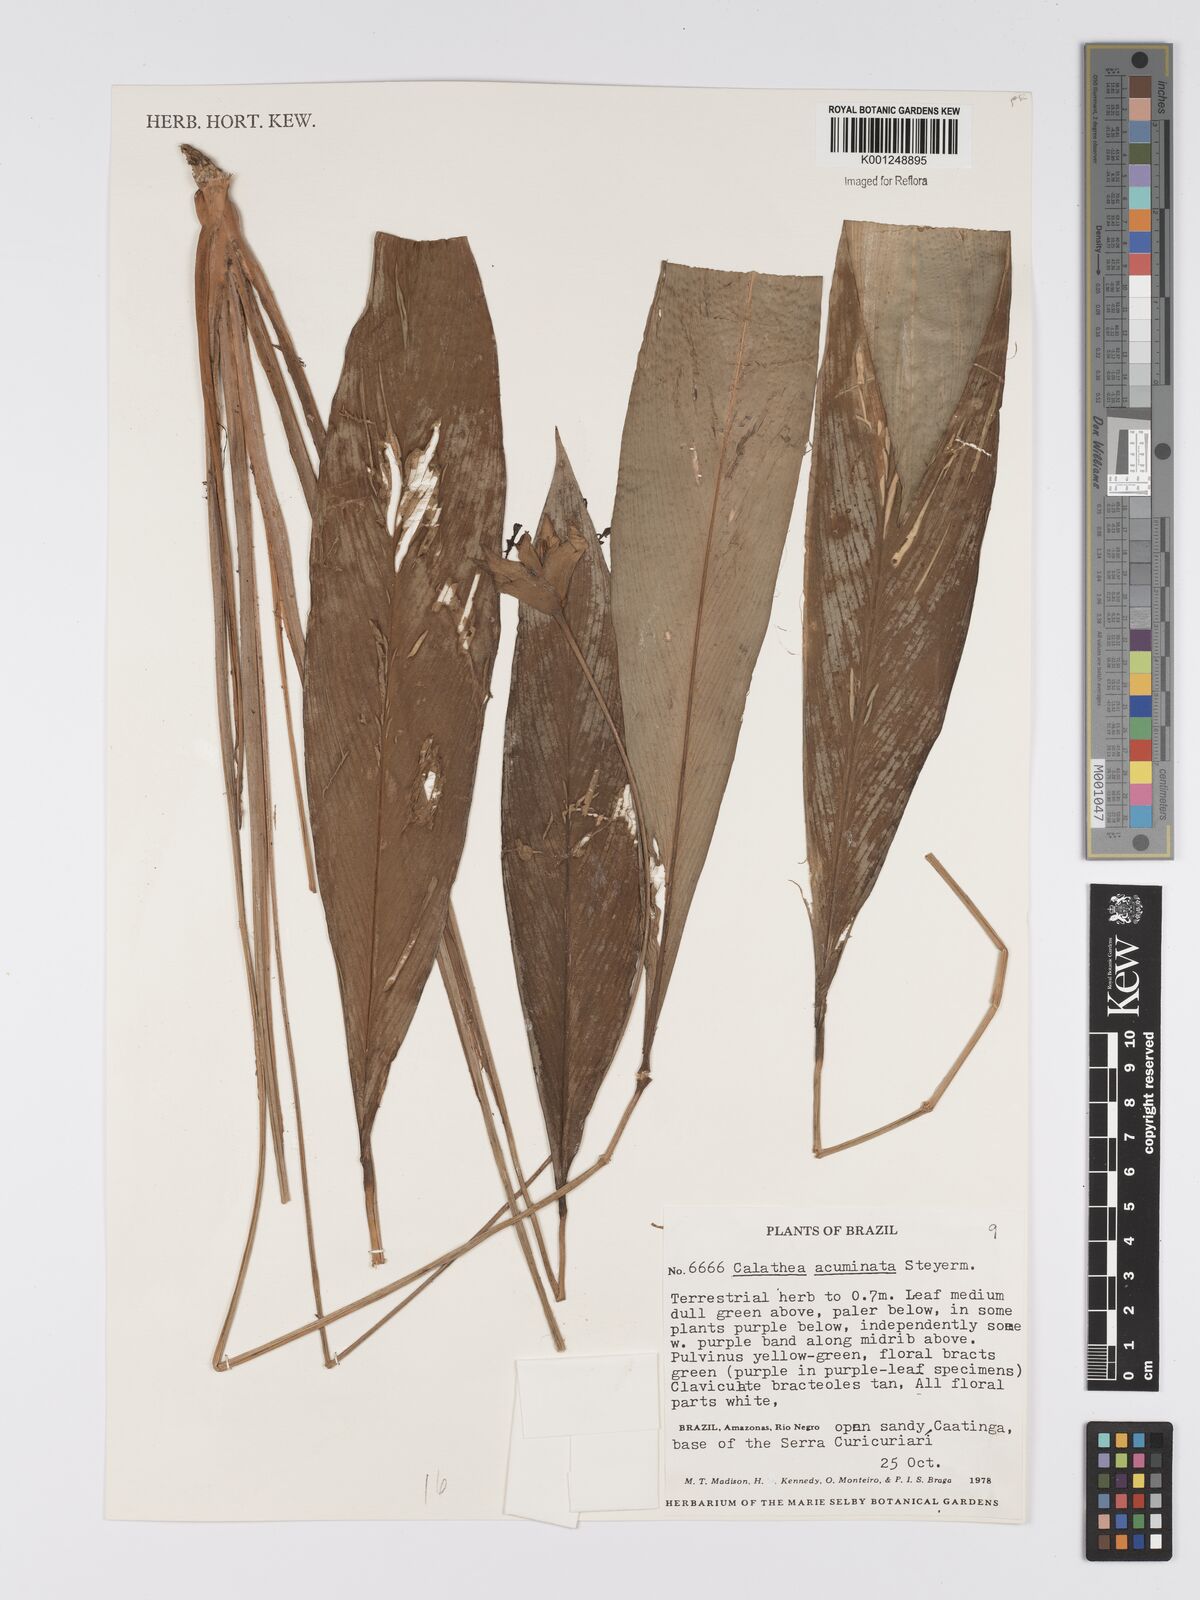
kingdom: Plantae
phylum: Tracheophyta
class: Liliopsida
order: Zingiberales
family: Marantaceae
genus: Goeppertia
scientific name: Goeppertia acuminata
